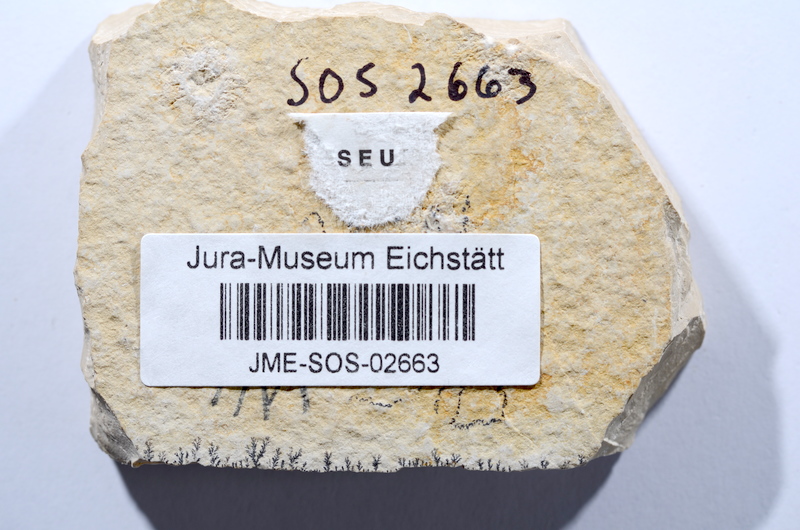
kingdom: Animalia
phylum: Chordata
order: Salmoniformes
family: Orthogonikleithridae
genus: Leptolepides
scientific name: Leptolepides sprattiformis
